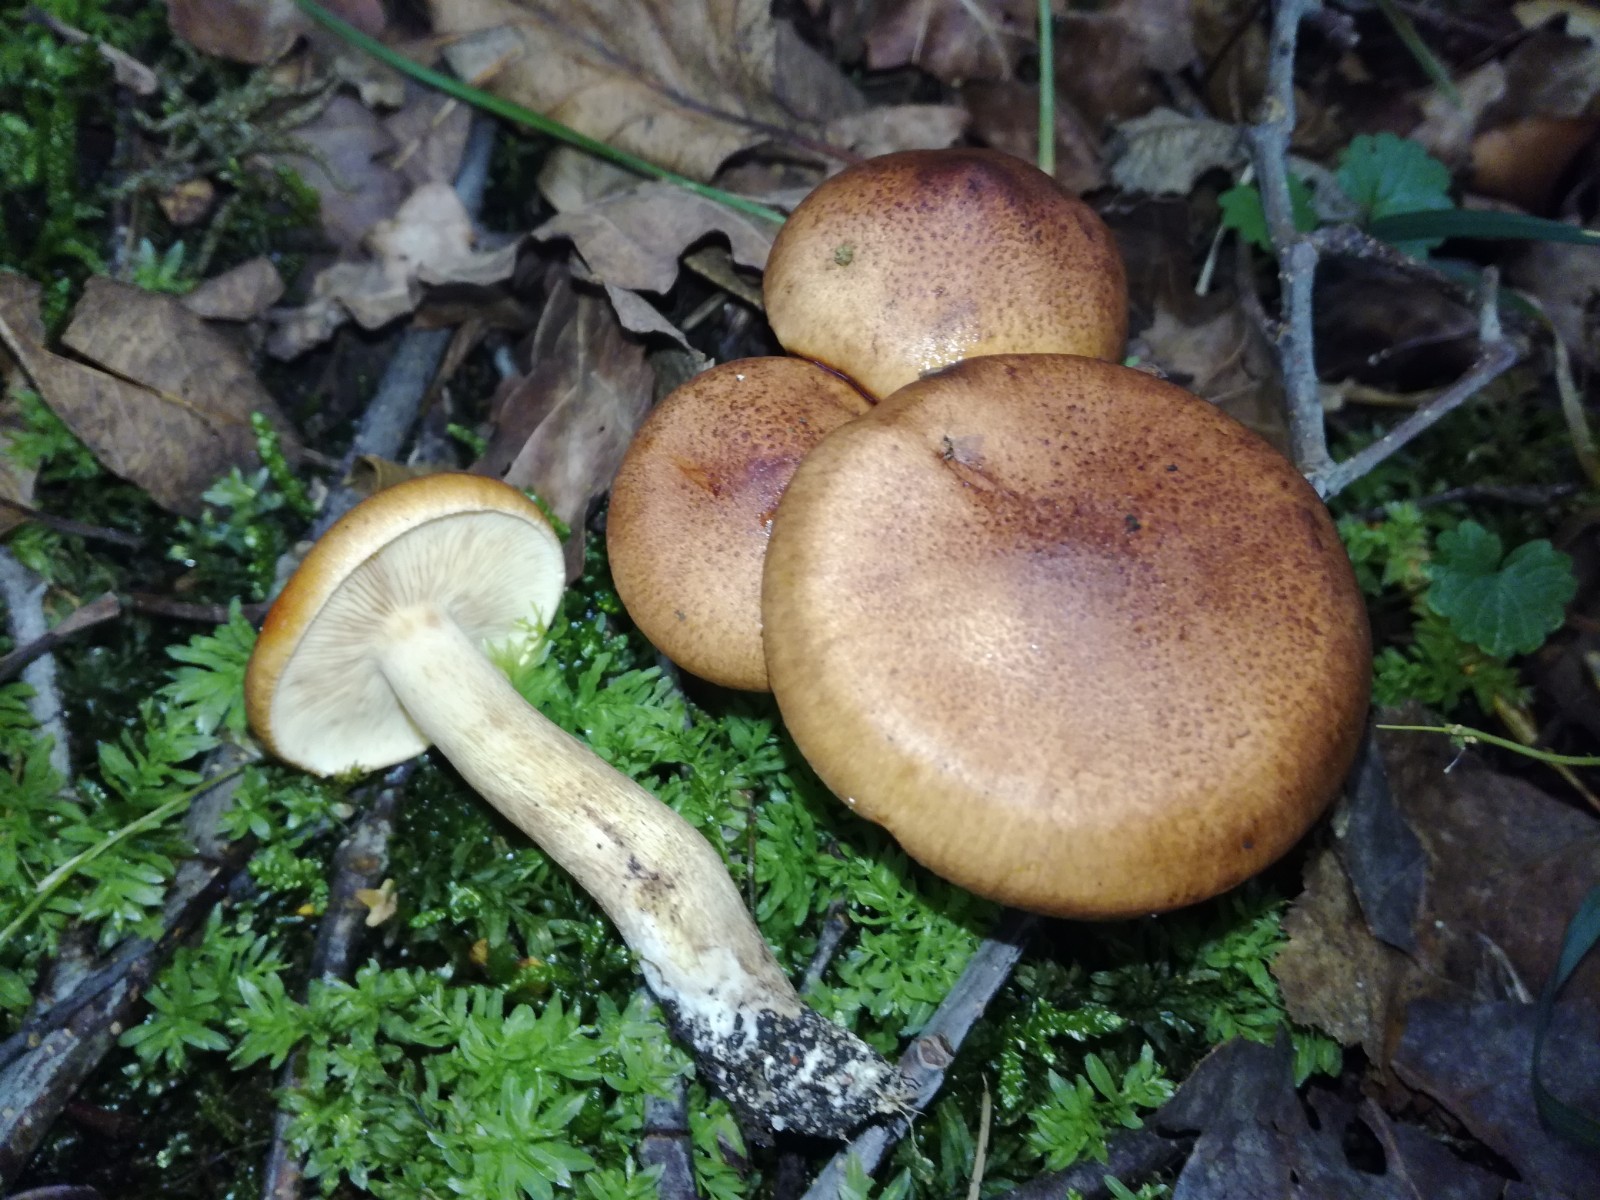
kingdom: Fungi
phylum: Basidiomycota
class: Agaricomycetes
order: Agaricales
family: Tricholomataceae
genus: Tricholoma
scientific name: Tricholoma fulvum
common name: birke-ridderhat
